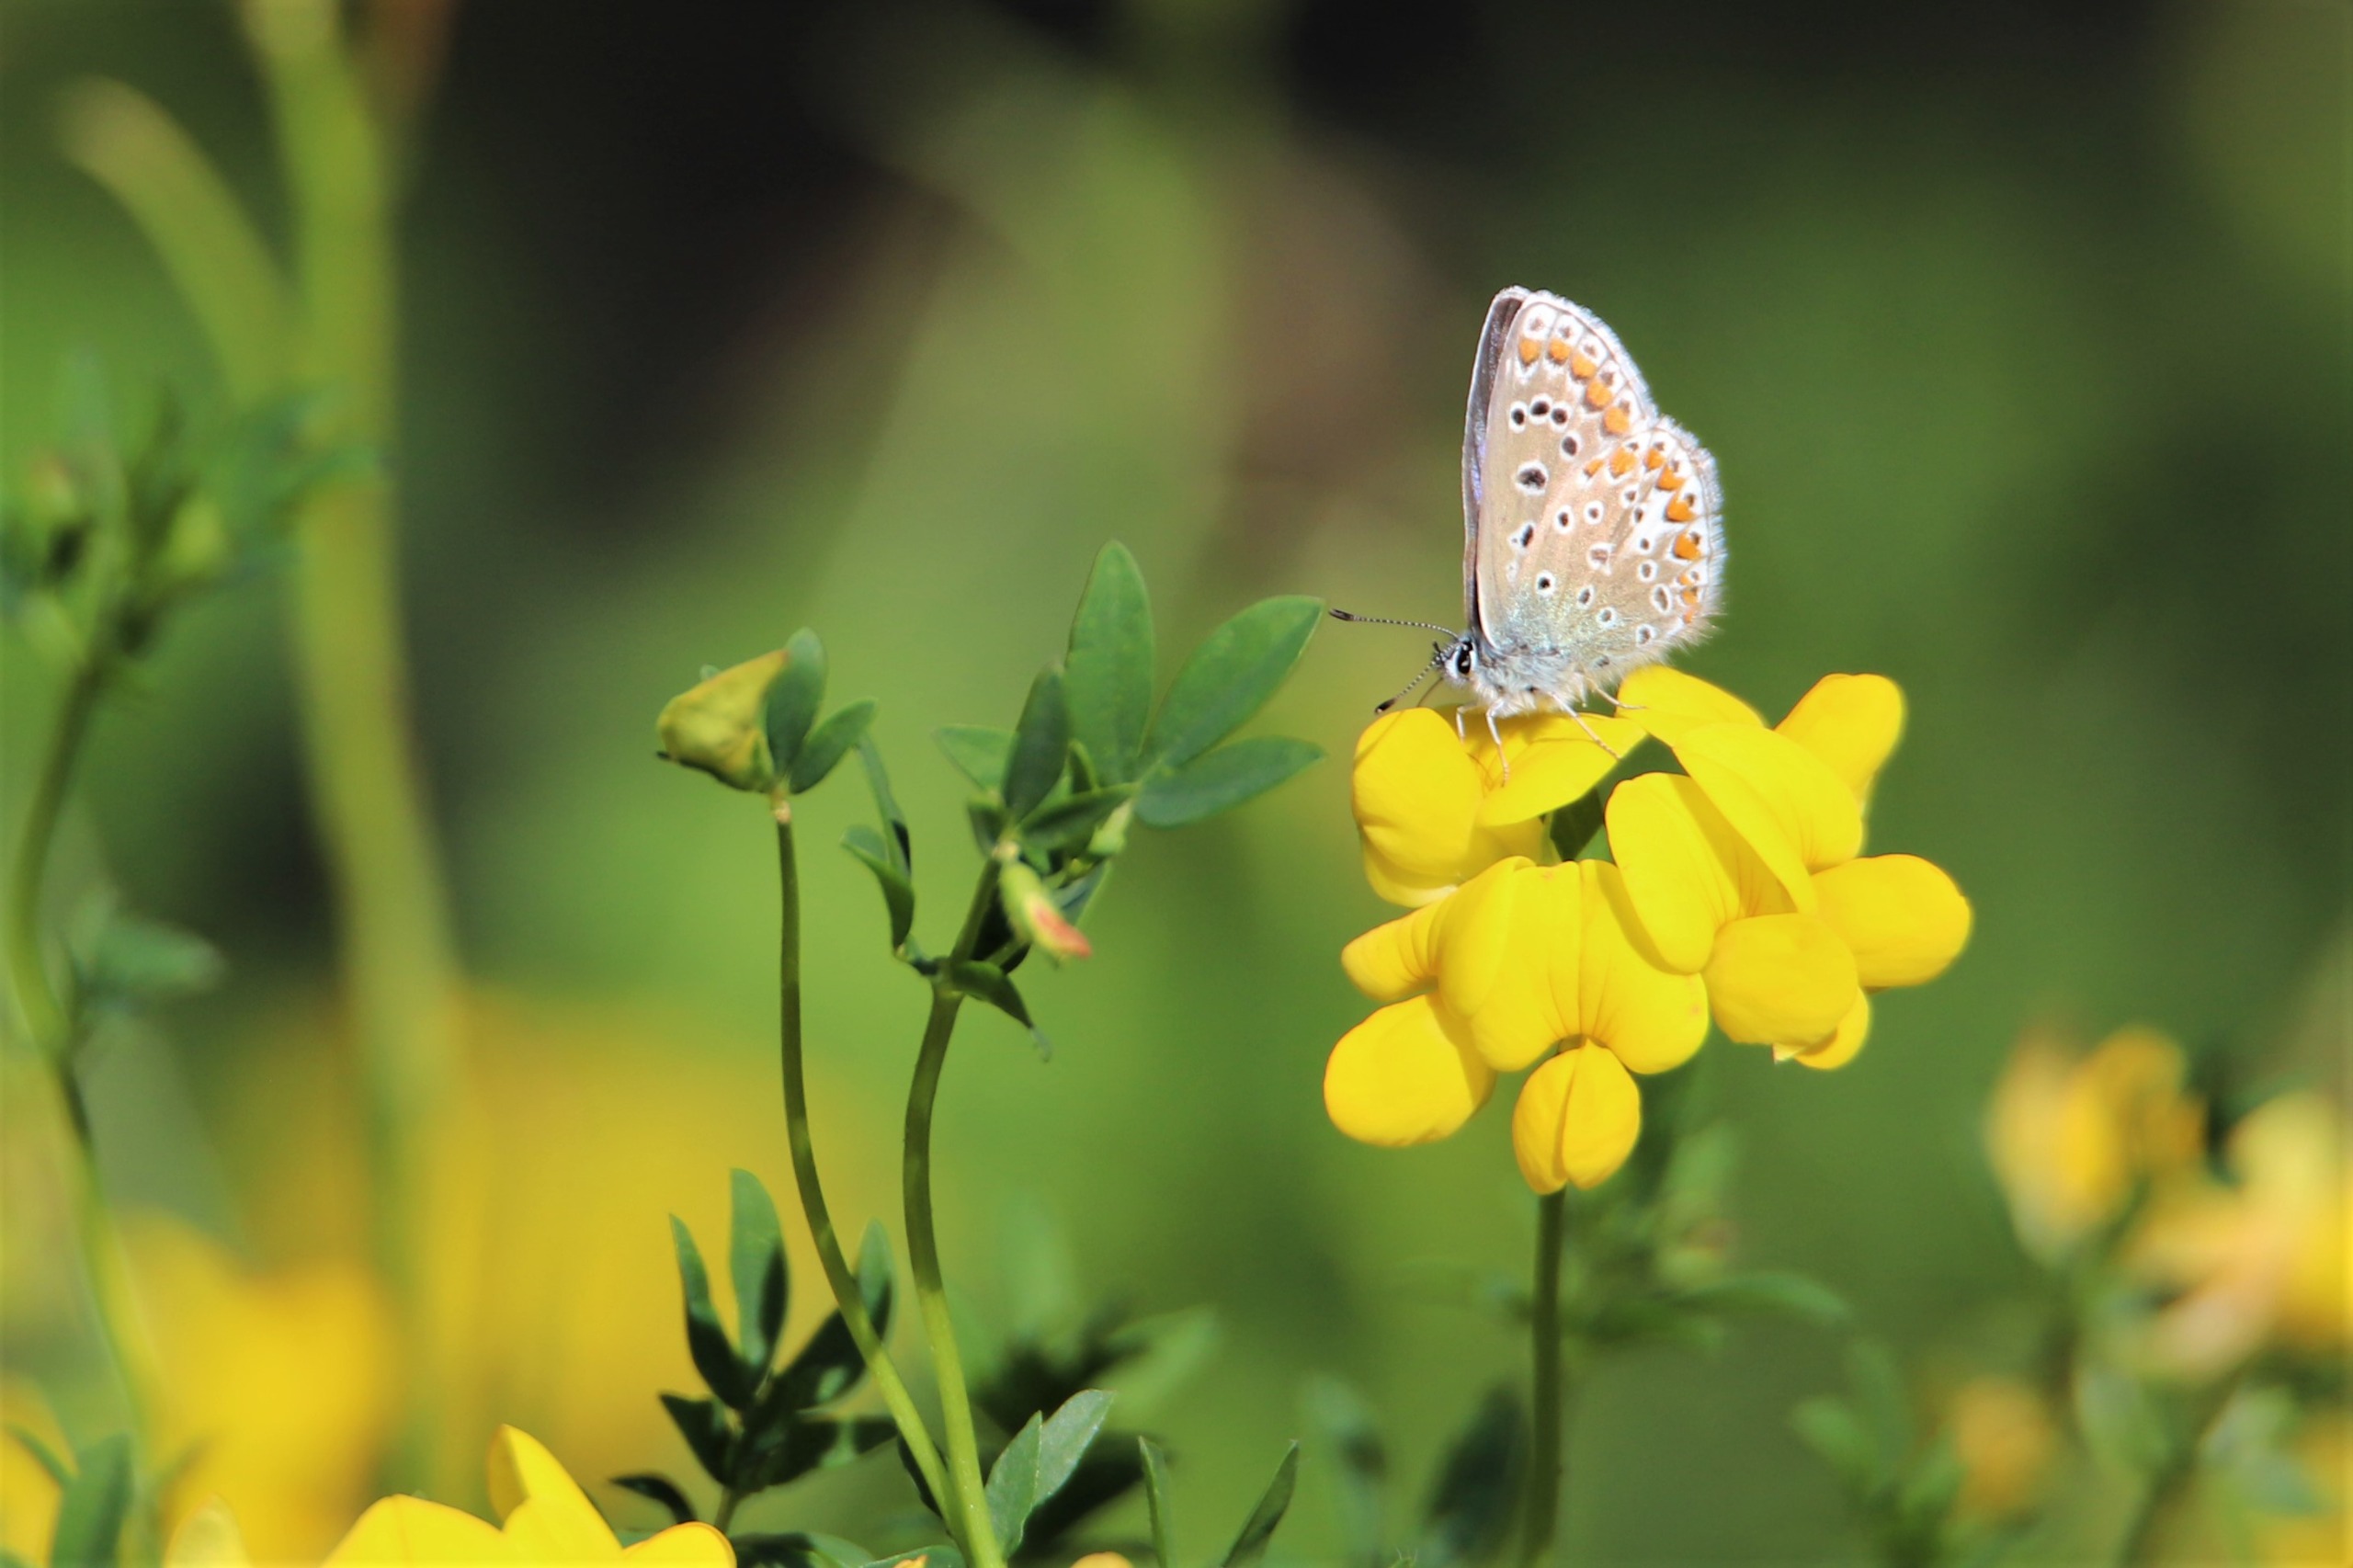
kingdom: Animalia
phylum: Arthropoda
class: Insecta
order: Lepidoptera
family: Lycaenidae
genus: Polyommatus
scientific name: Polyommatus icarus
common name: Almindelig blåfugl
